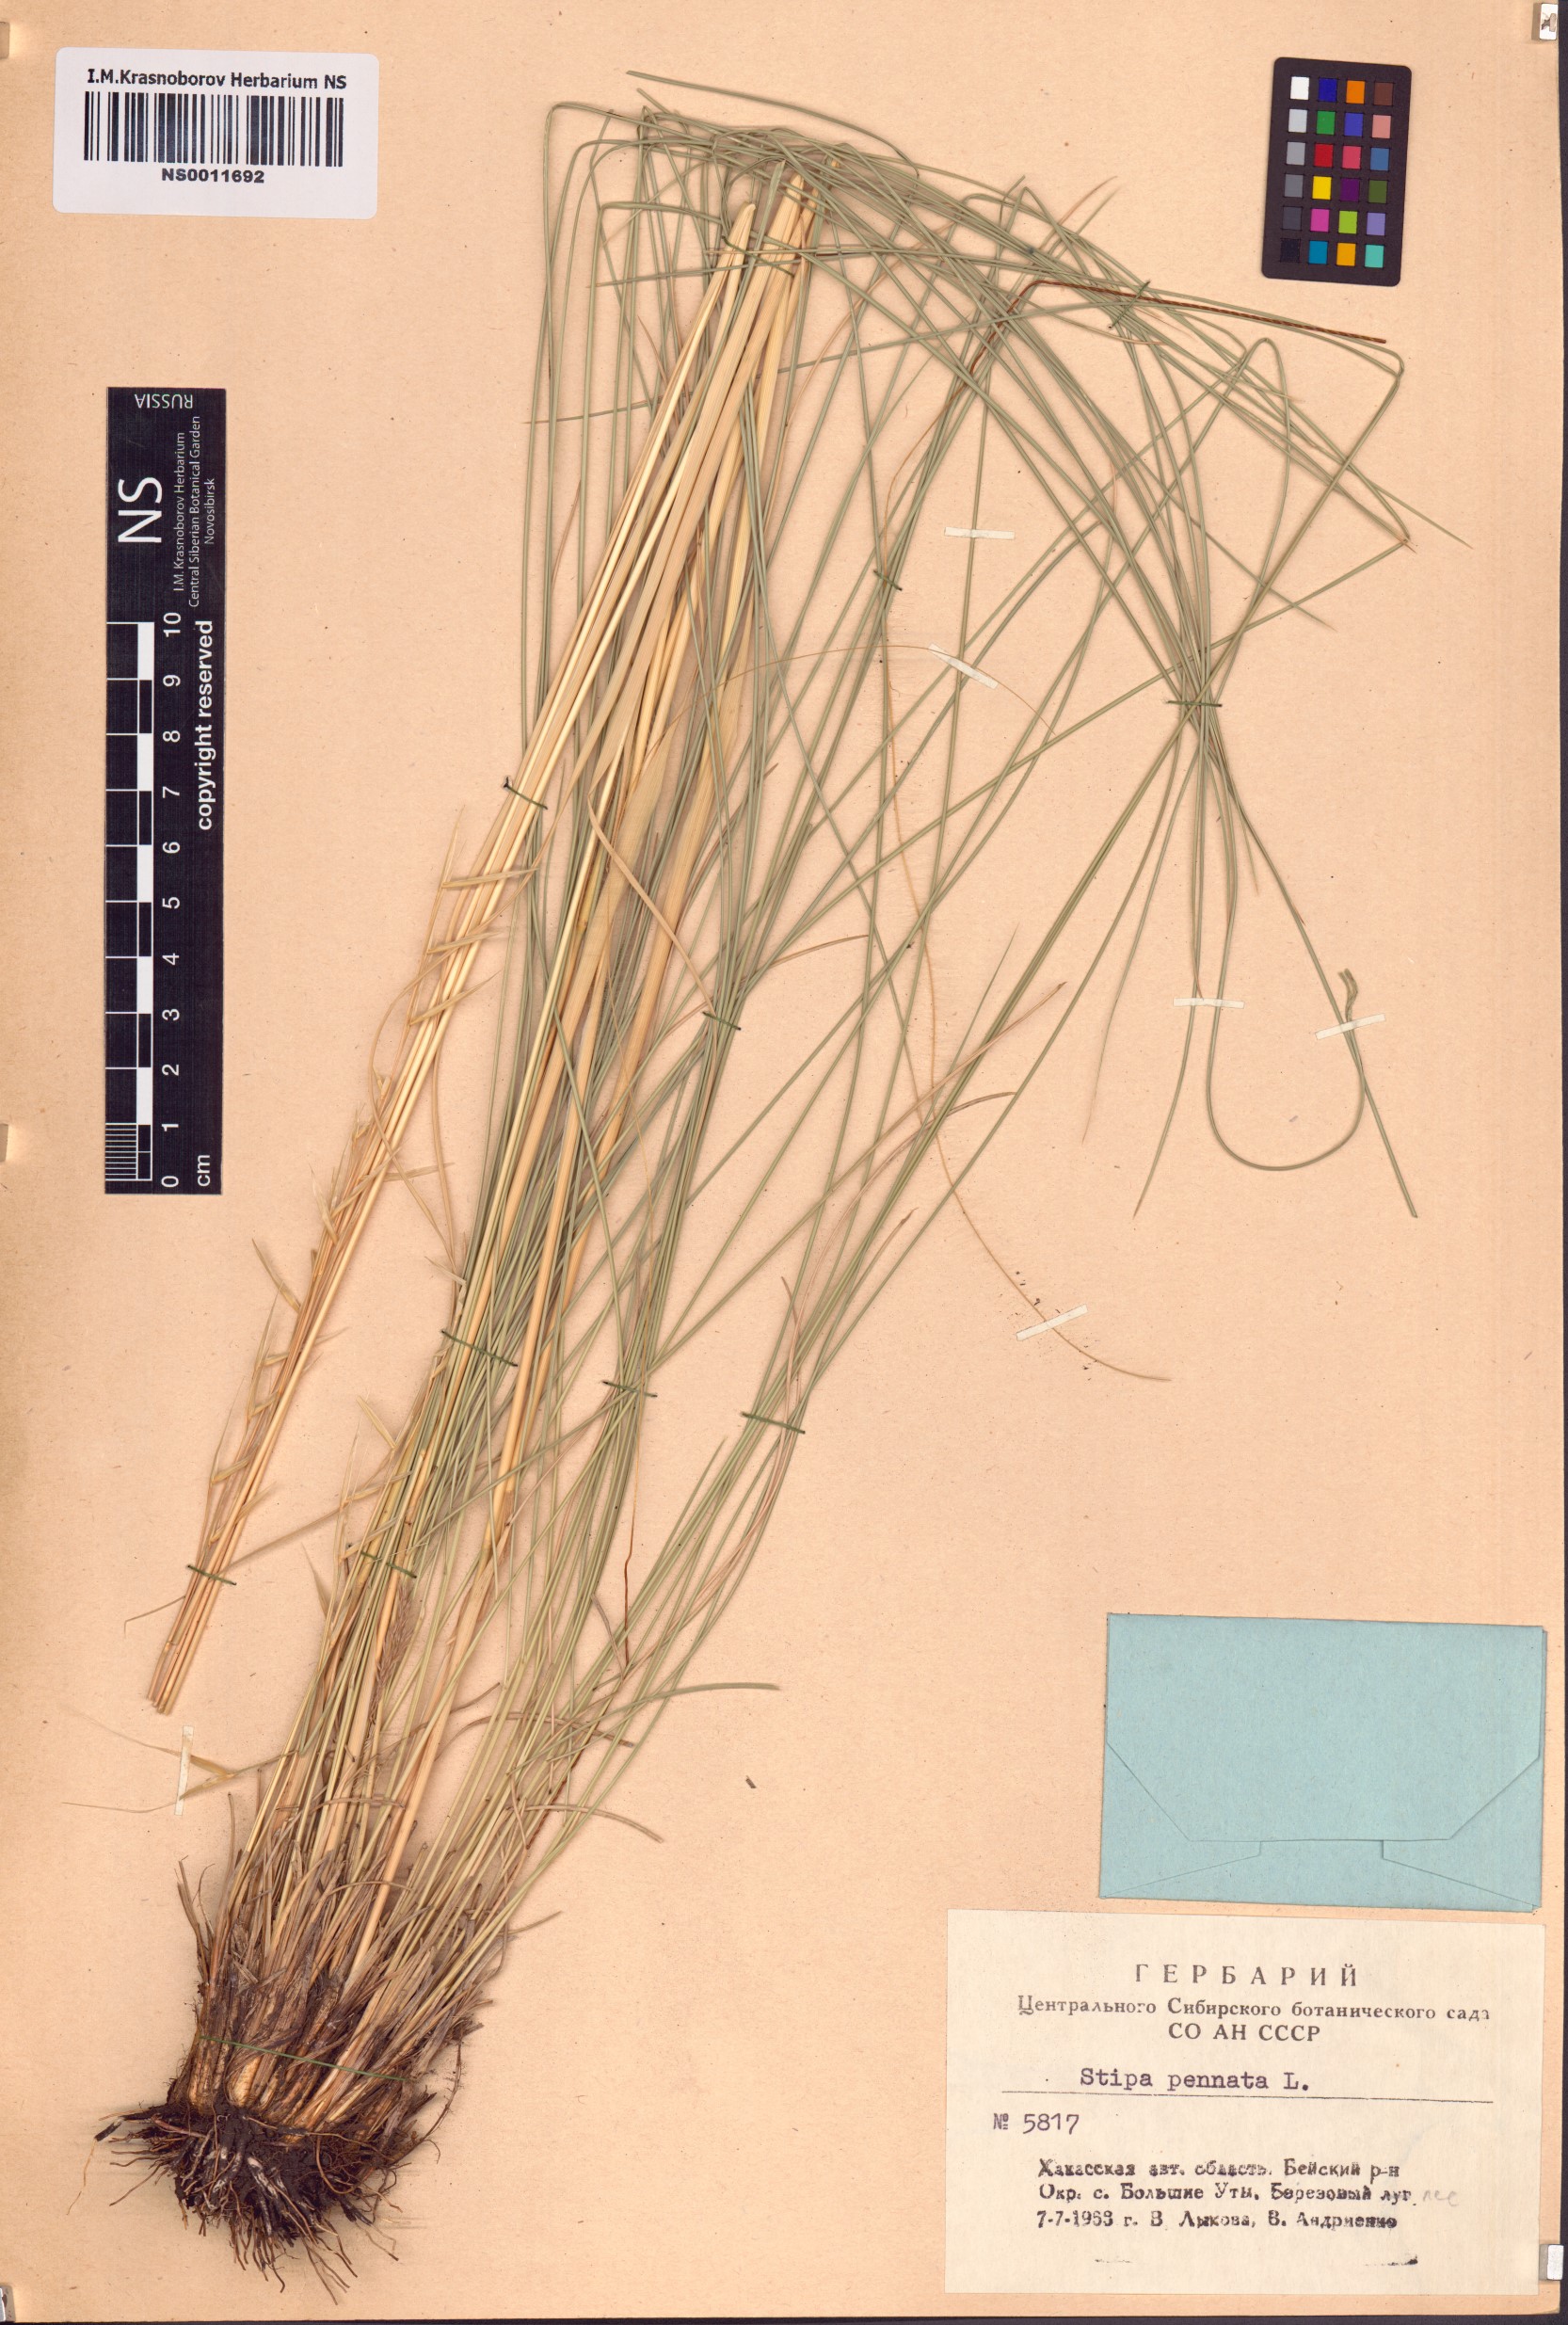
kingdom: Plantae
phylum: Tracheophyta
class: Liliopsida
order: Poales
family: Poaceae
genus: Stipa
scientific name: Stipa pennata
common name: European feather grass
